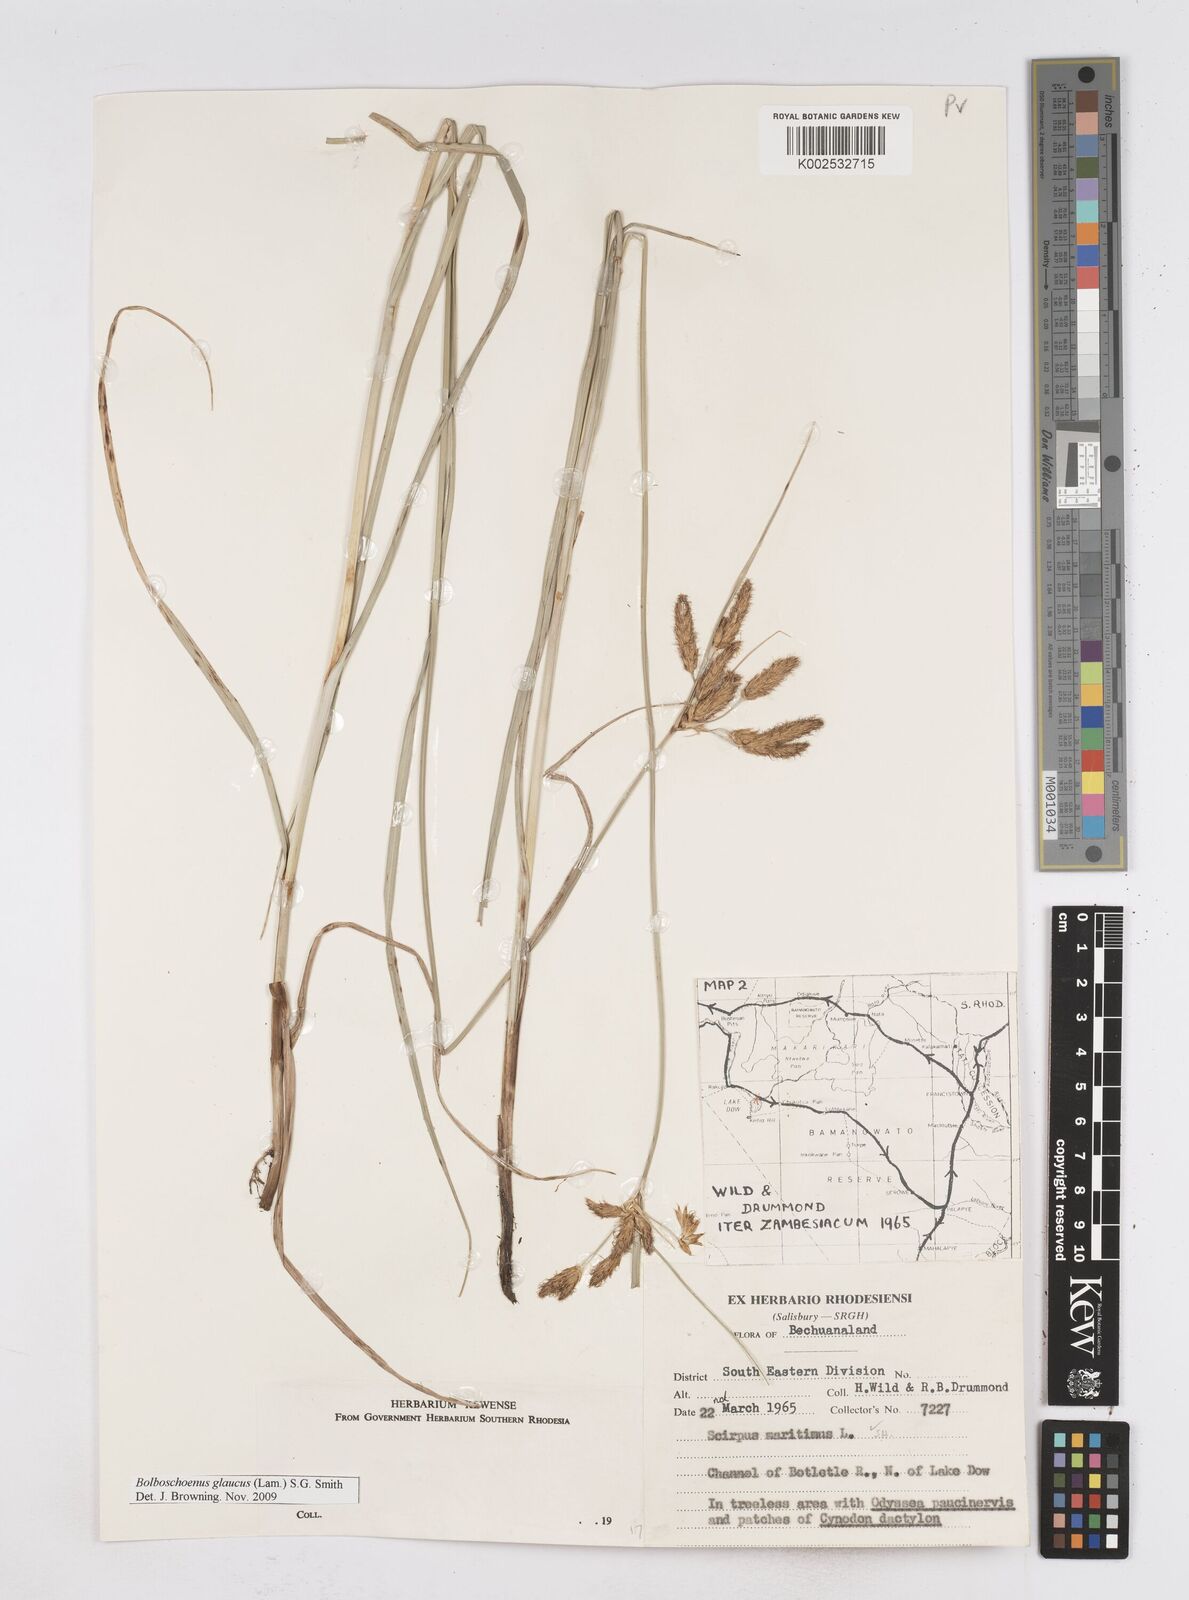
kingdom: Plantae
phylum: Tracheophyta
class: Liliopsida
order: Poales
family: Cyperaceae
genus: Bolboschoenus
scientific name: Bolboschoenus glaucus
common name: Tuberous bulrush
